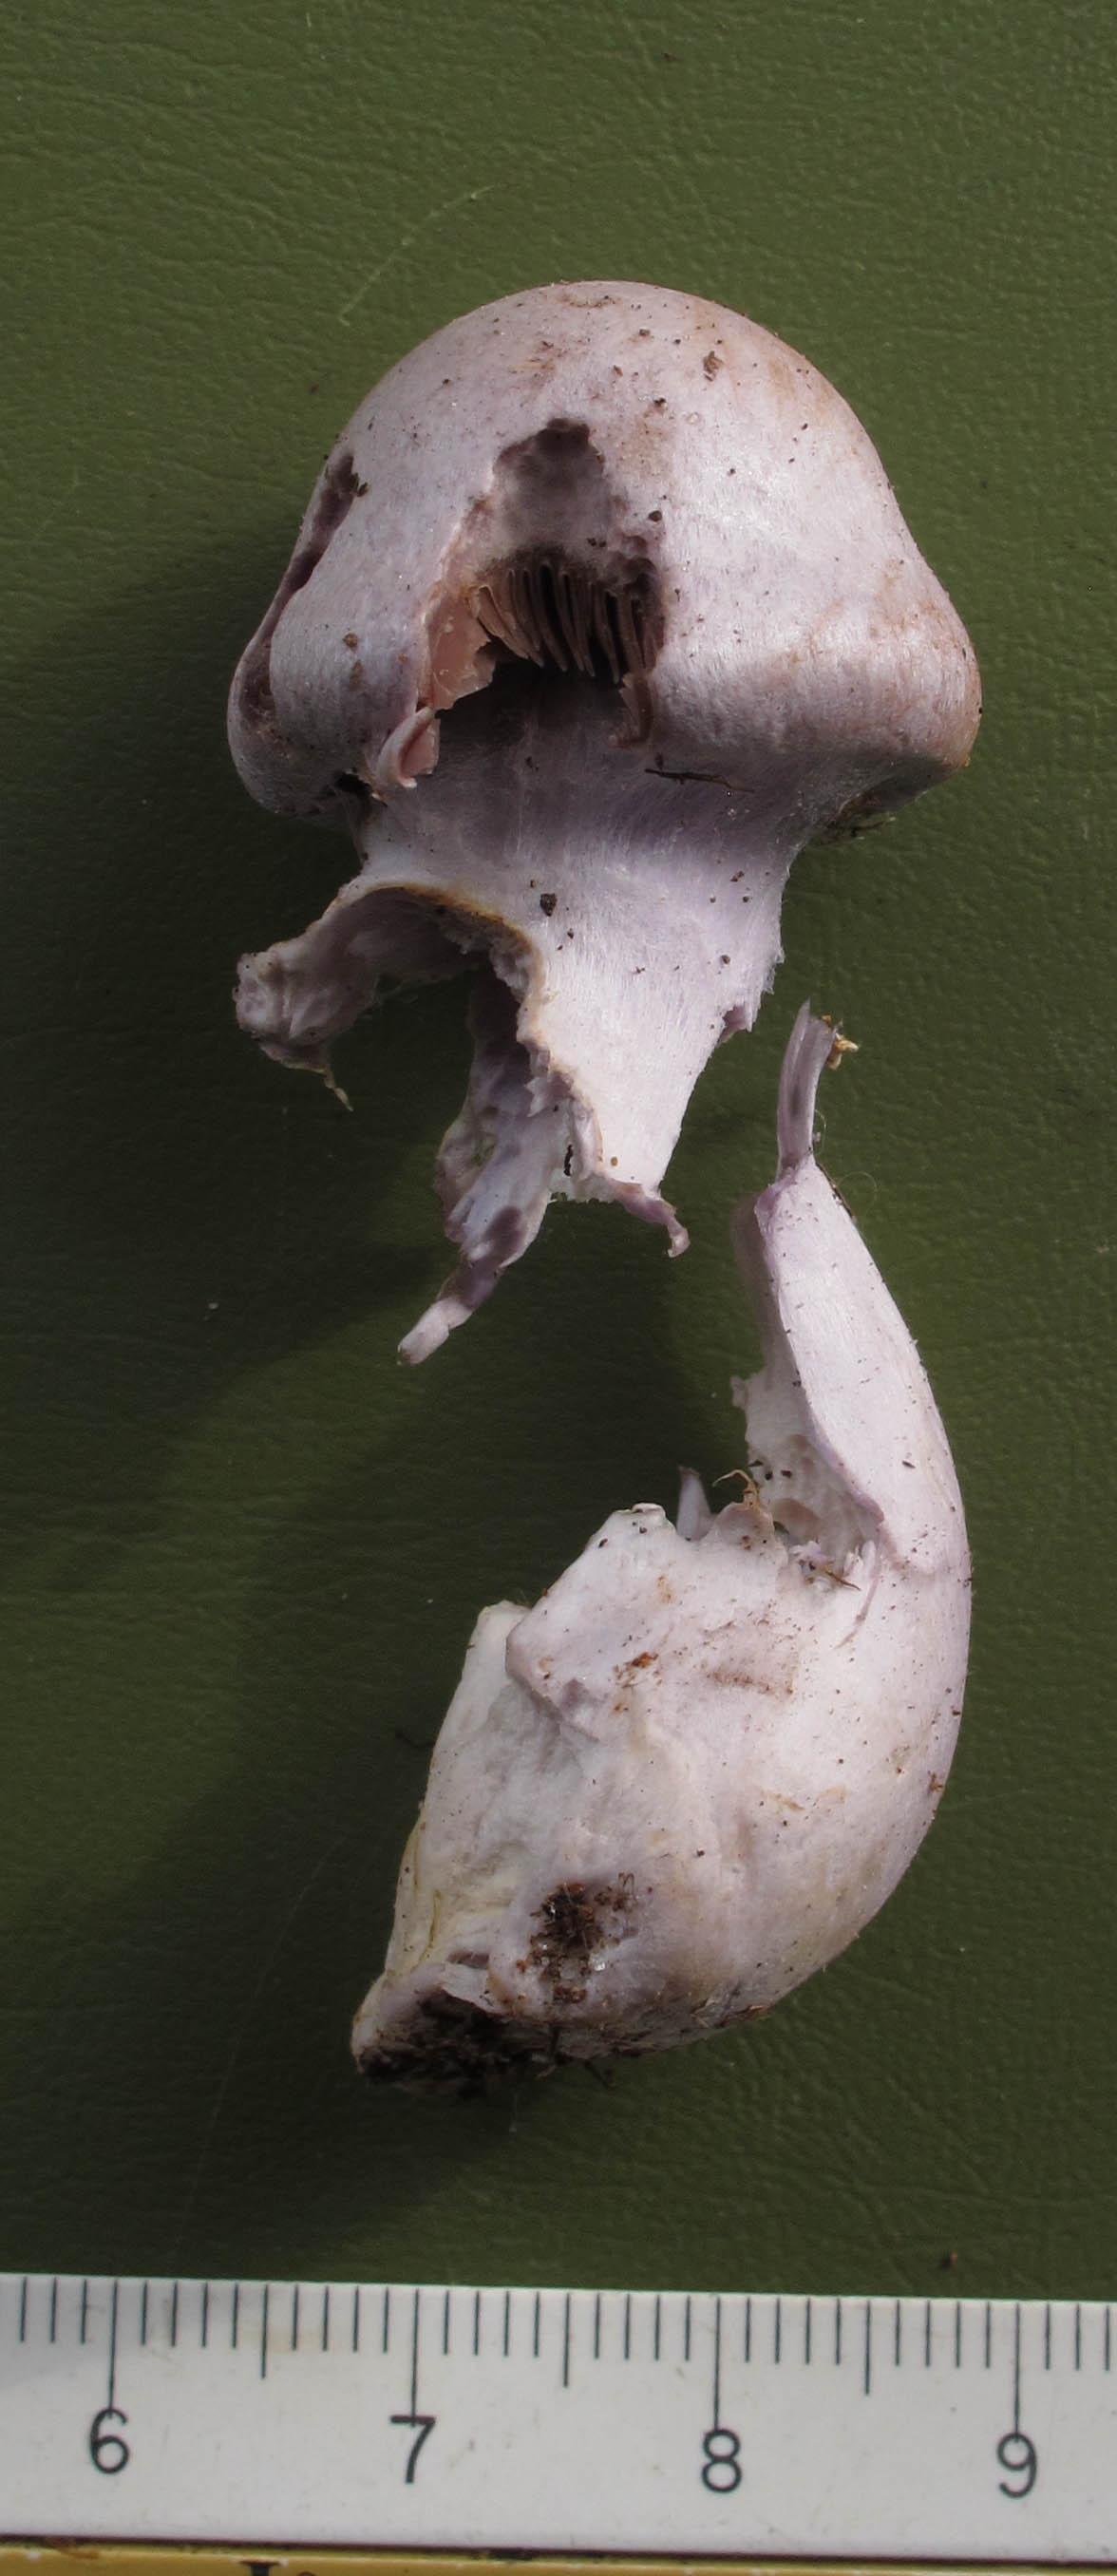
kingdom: Fungi
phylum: Basidiomycota
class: Agaricomycetes
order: Agaricales
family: Cortinariaceae
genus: Cortinarius
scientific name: Cortinarius alboviolaceus
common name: lysviolet slørhat
